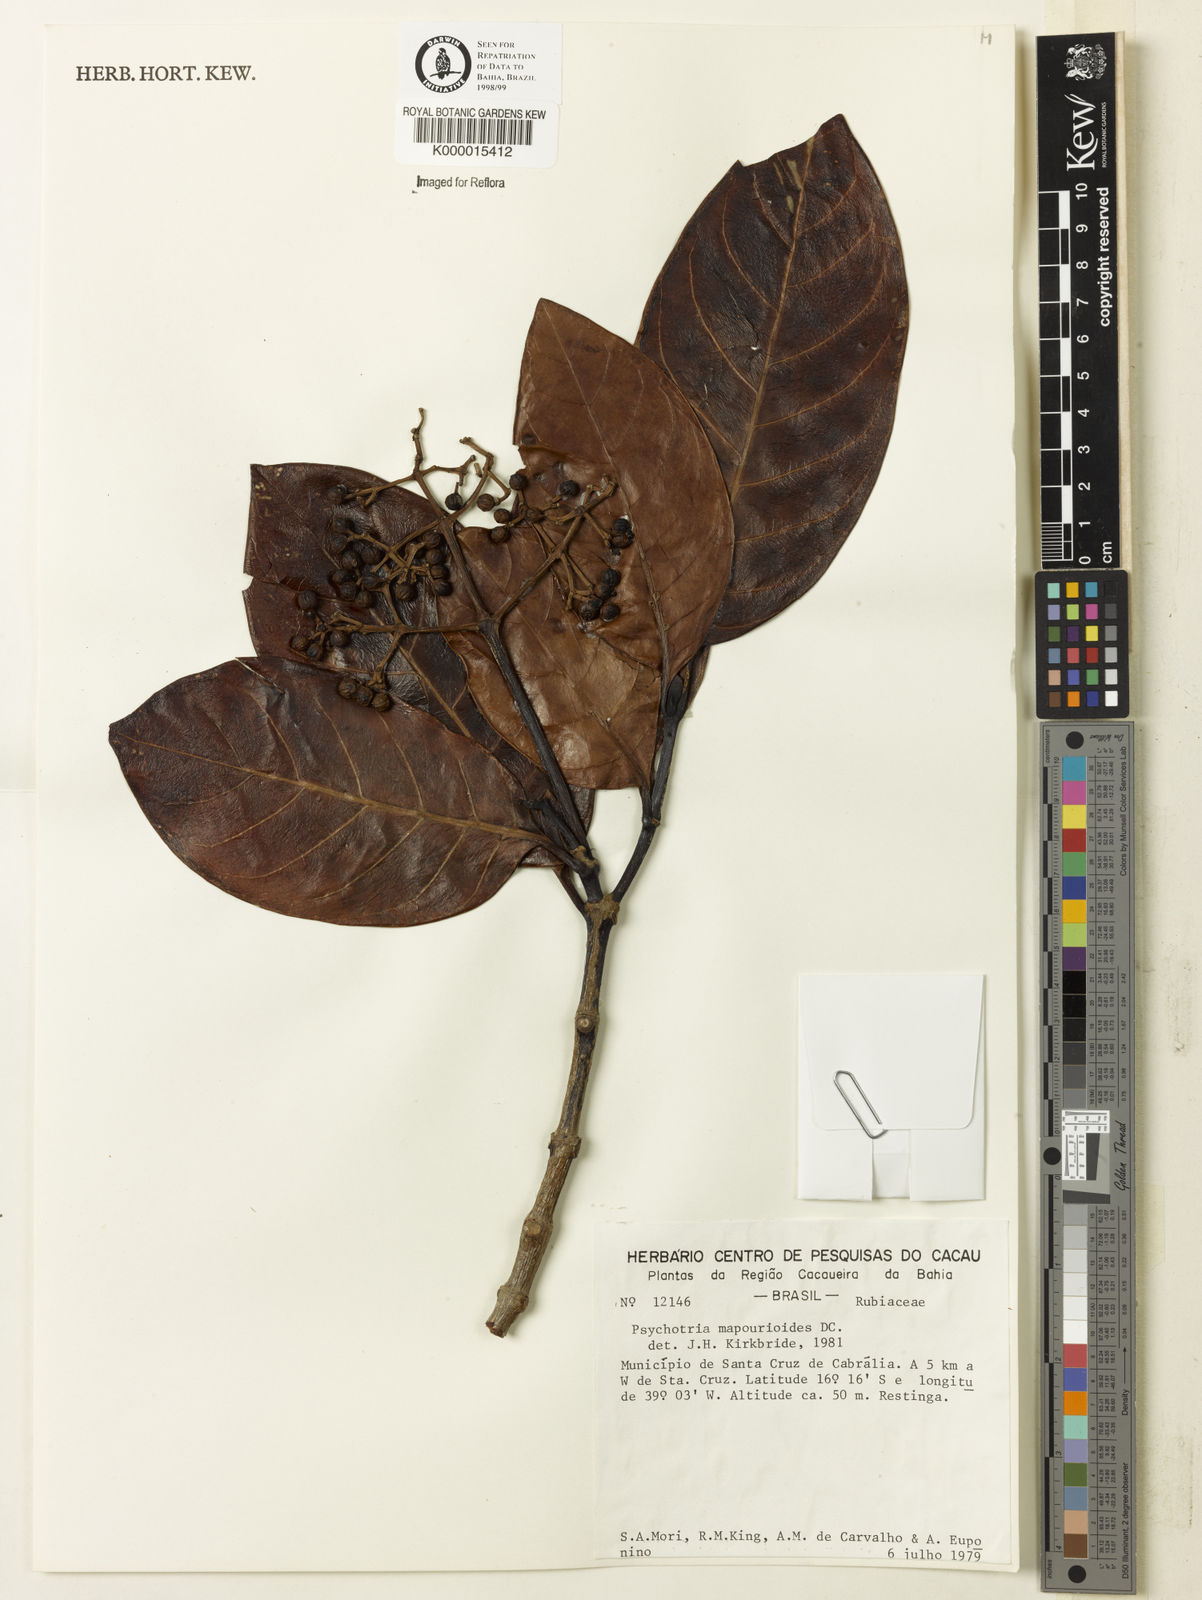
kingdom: Plantae
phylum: Tracheophyta
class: Magnoliopsida
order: Gentianales
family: Rubiaceae
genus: Psychotria
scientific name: Psychotria carthagenensis
